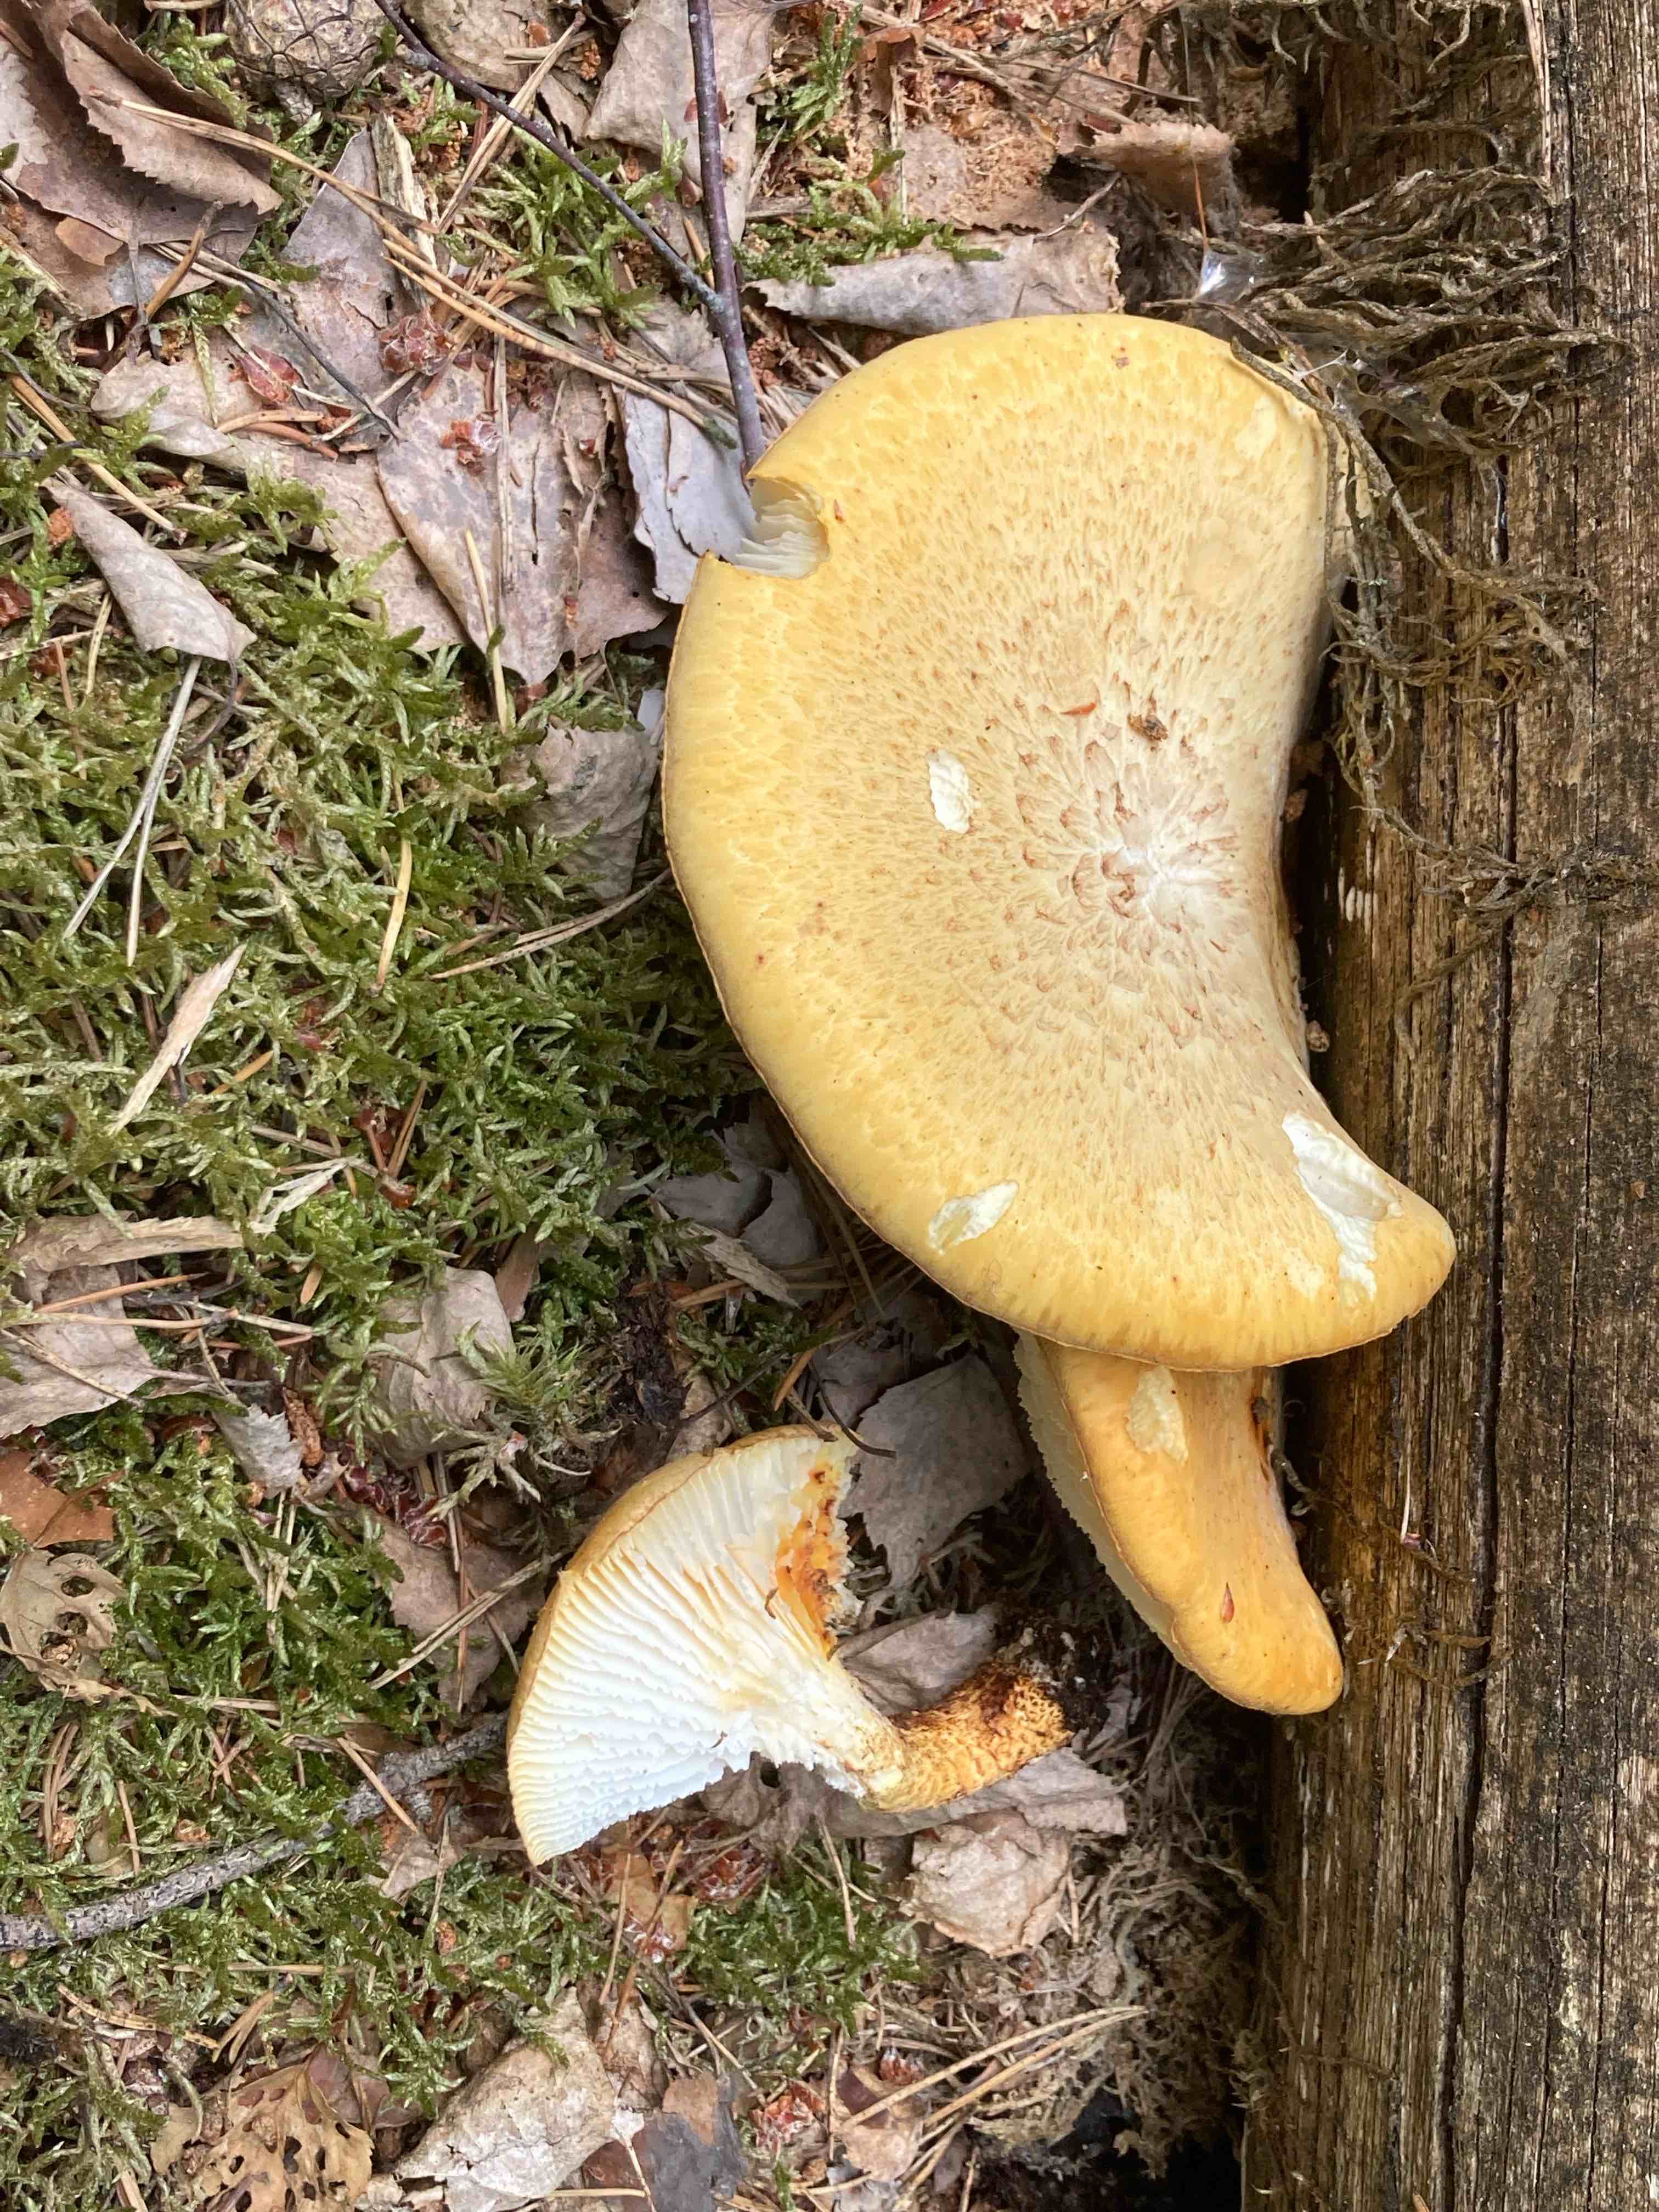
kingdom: Fungi
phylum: Basidiomycota
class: Agaricomycetes
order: Gloeophyllales
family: Gloeophyllaceae
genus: Neolentinus
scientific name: Neolentinus lepideus
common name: skællet sejhat
